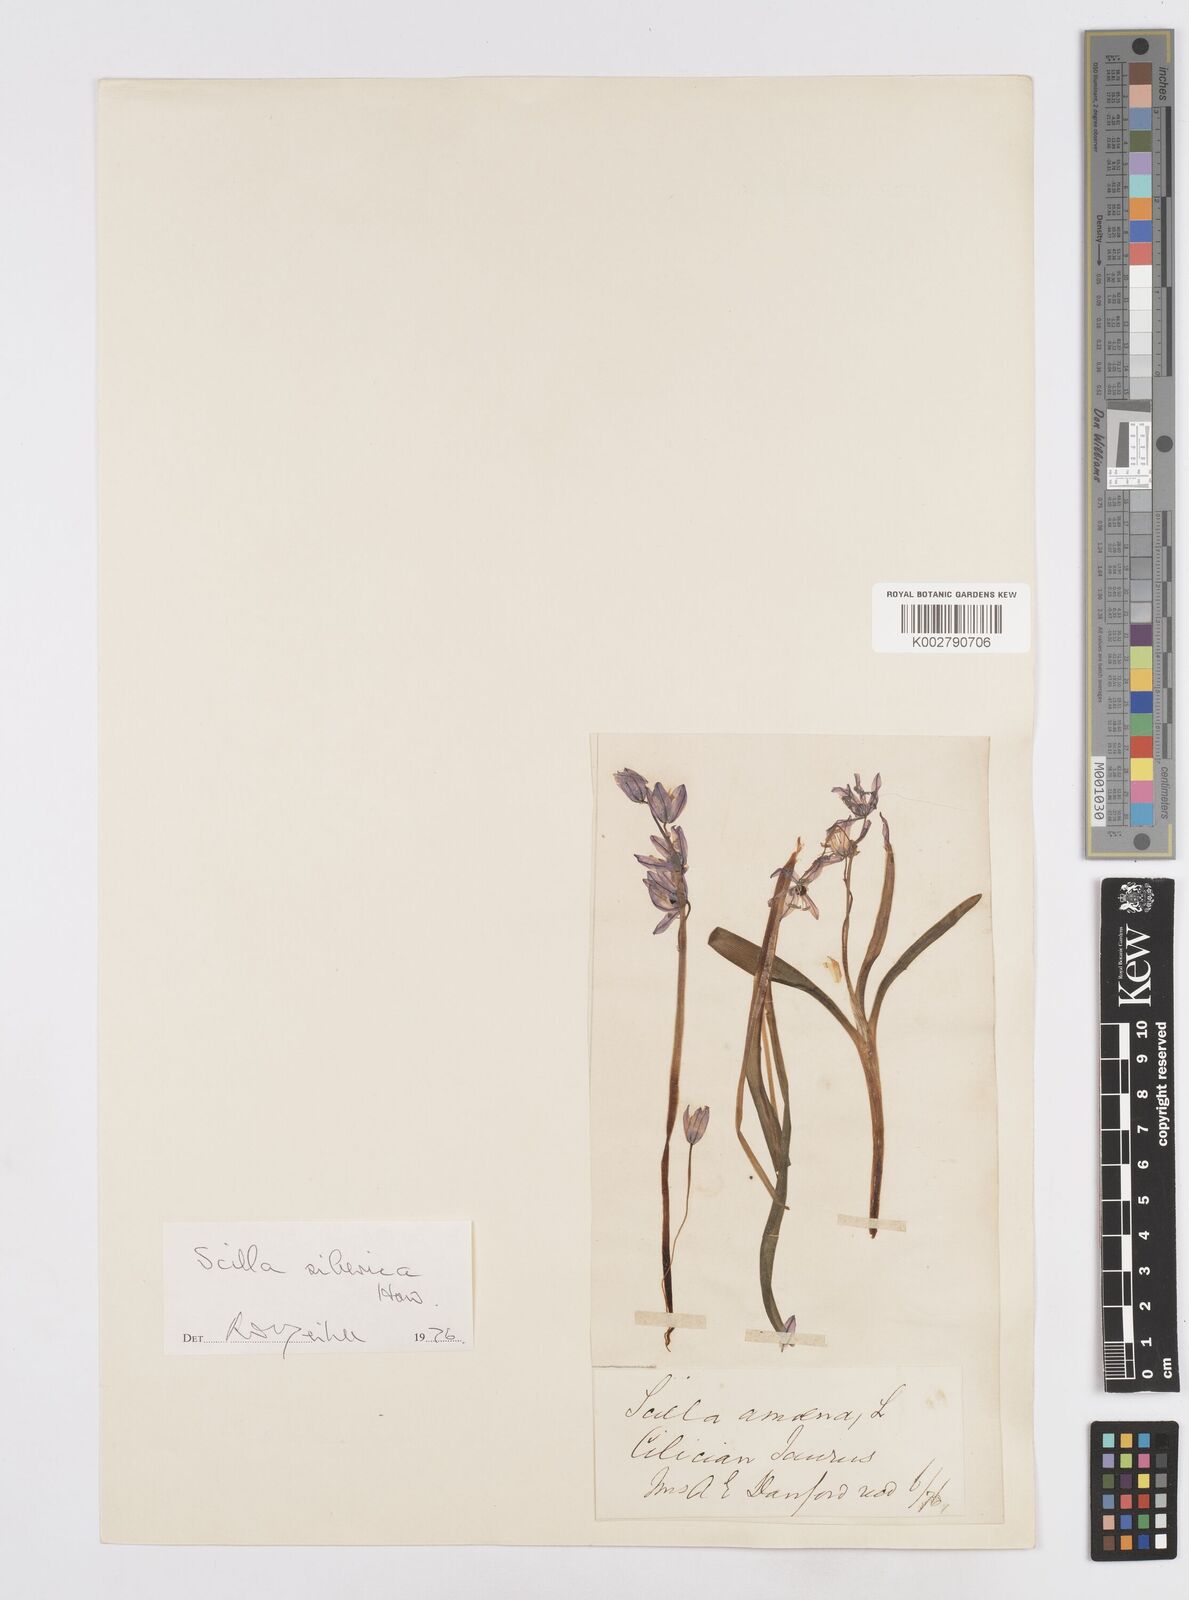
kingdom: Plantae
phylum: Tracheophyta
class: Liliopsida
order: Asparagales
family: Asparagaceae
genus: Scilla
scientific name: Scilla siberica
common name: Siberian squill
